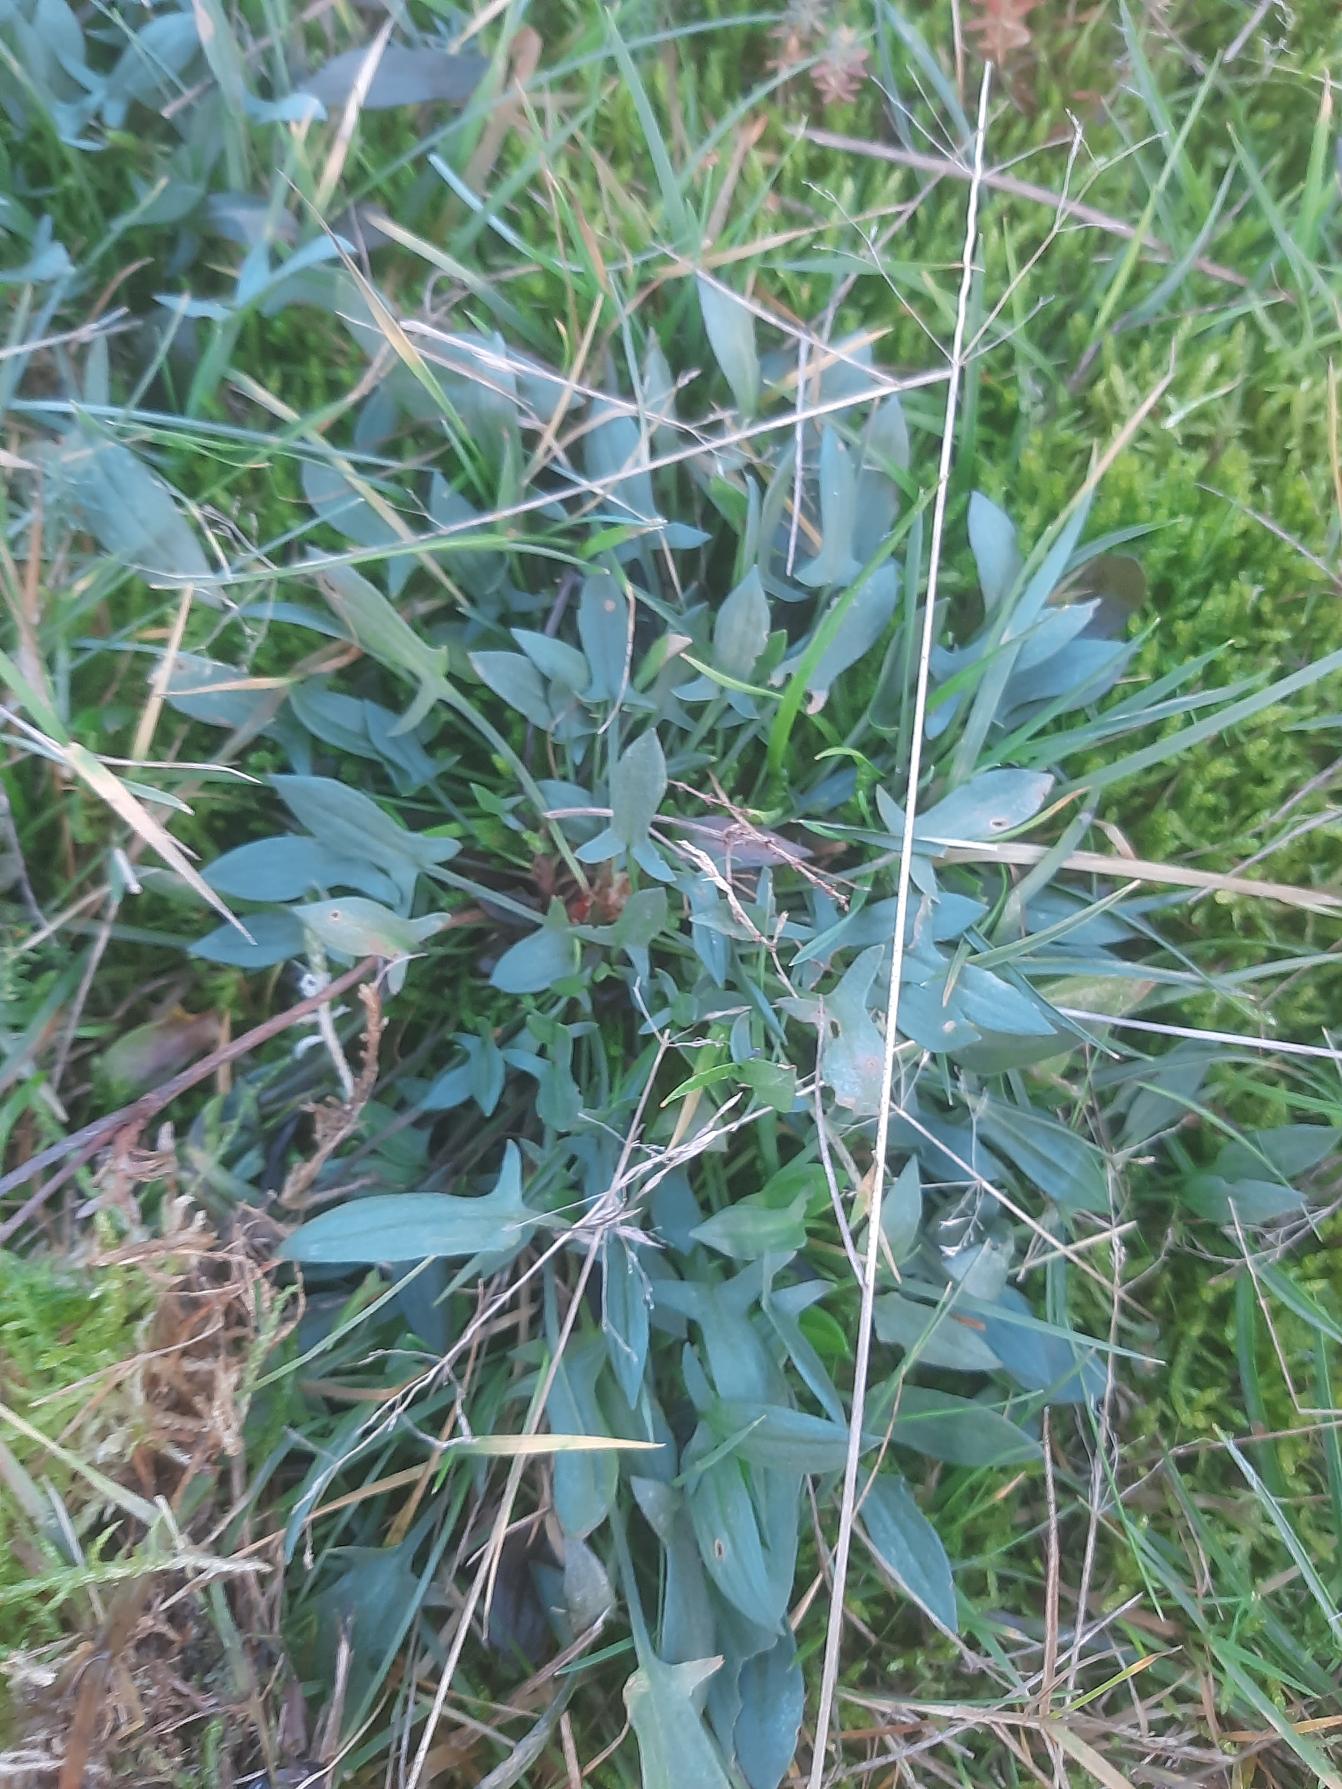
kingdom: Plantae
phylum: Tracheophyta
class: Magnoliopsida
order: Caryophyllales
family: Polygonaceae
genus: Rumex
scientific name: Rumex acetosella
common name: Rødknæ
